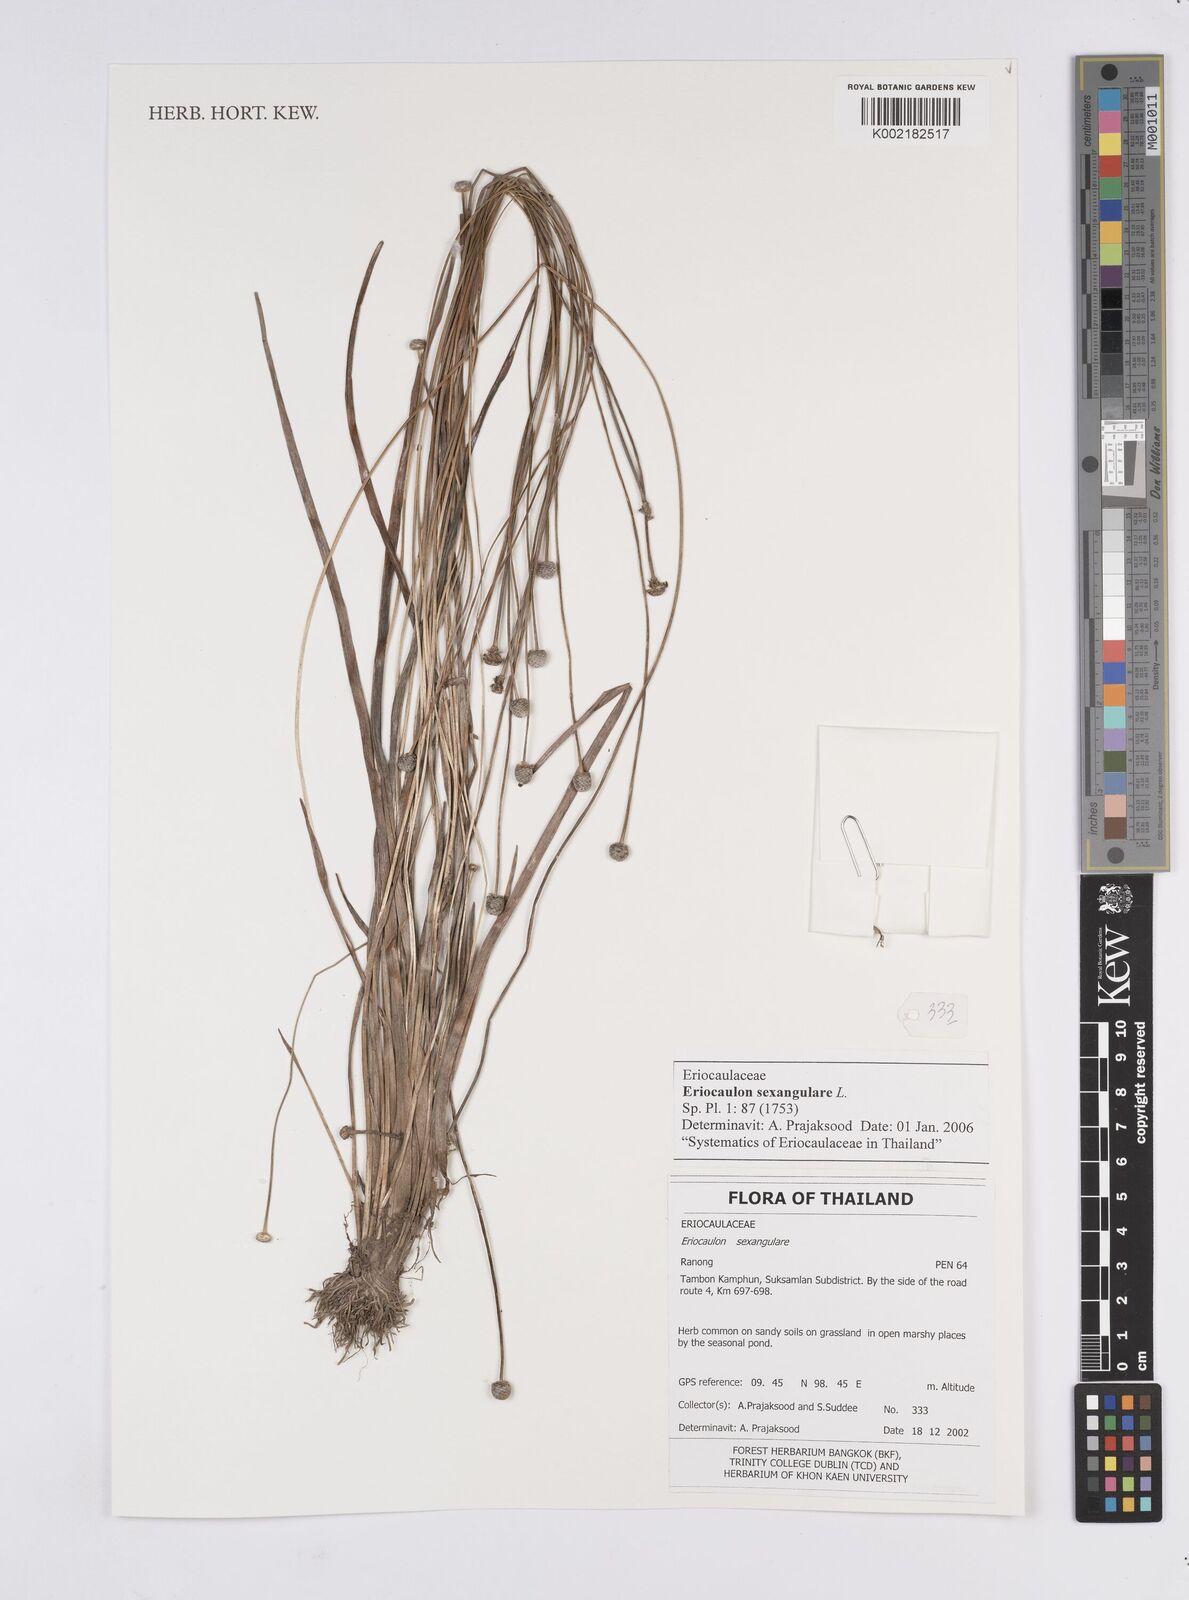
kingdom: Plantae
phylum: Tracheophyta
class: Liliopsida
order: Poales
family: Eriocaulaceae
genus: Eriocaulon
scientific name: Eriocaulon sexangulare
